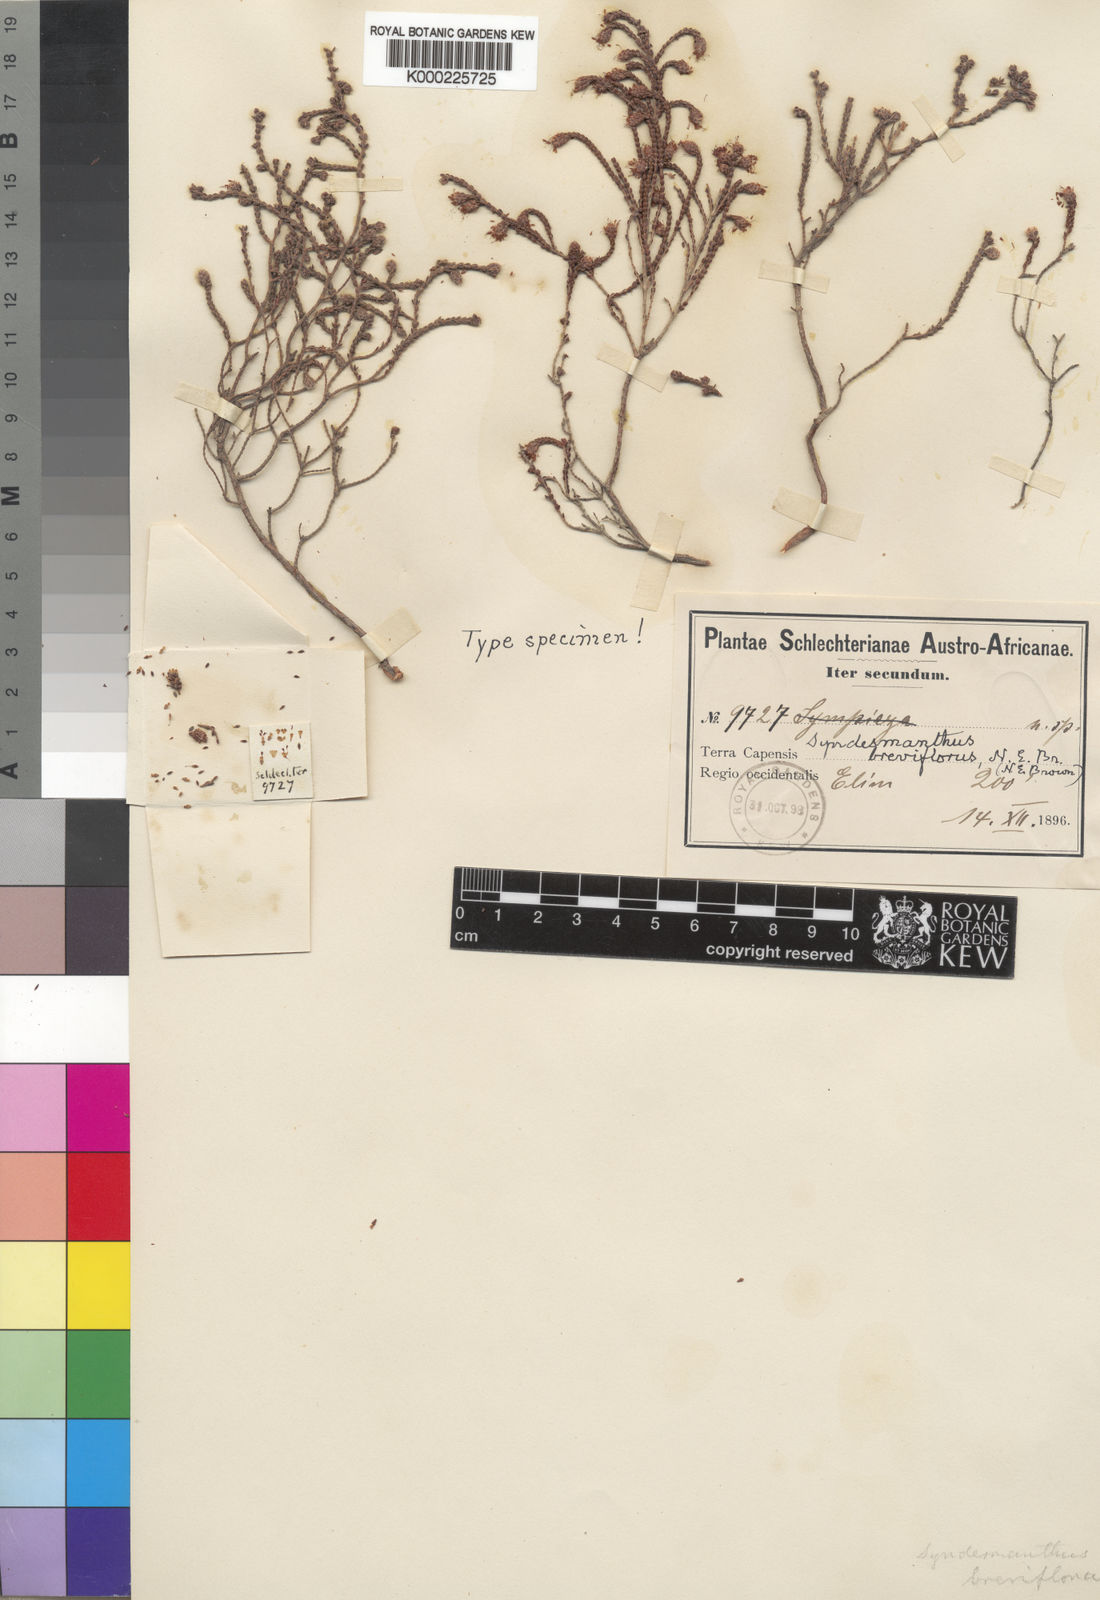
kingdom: Plantae
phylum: Tracheophyta
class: Magnoliopsida
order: Ericales
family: Ericaceae
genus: Erica
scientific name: Erica brownii
